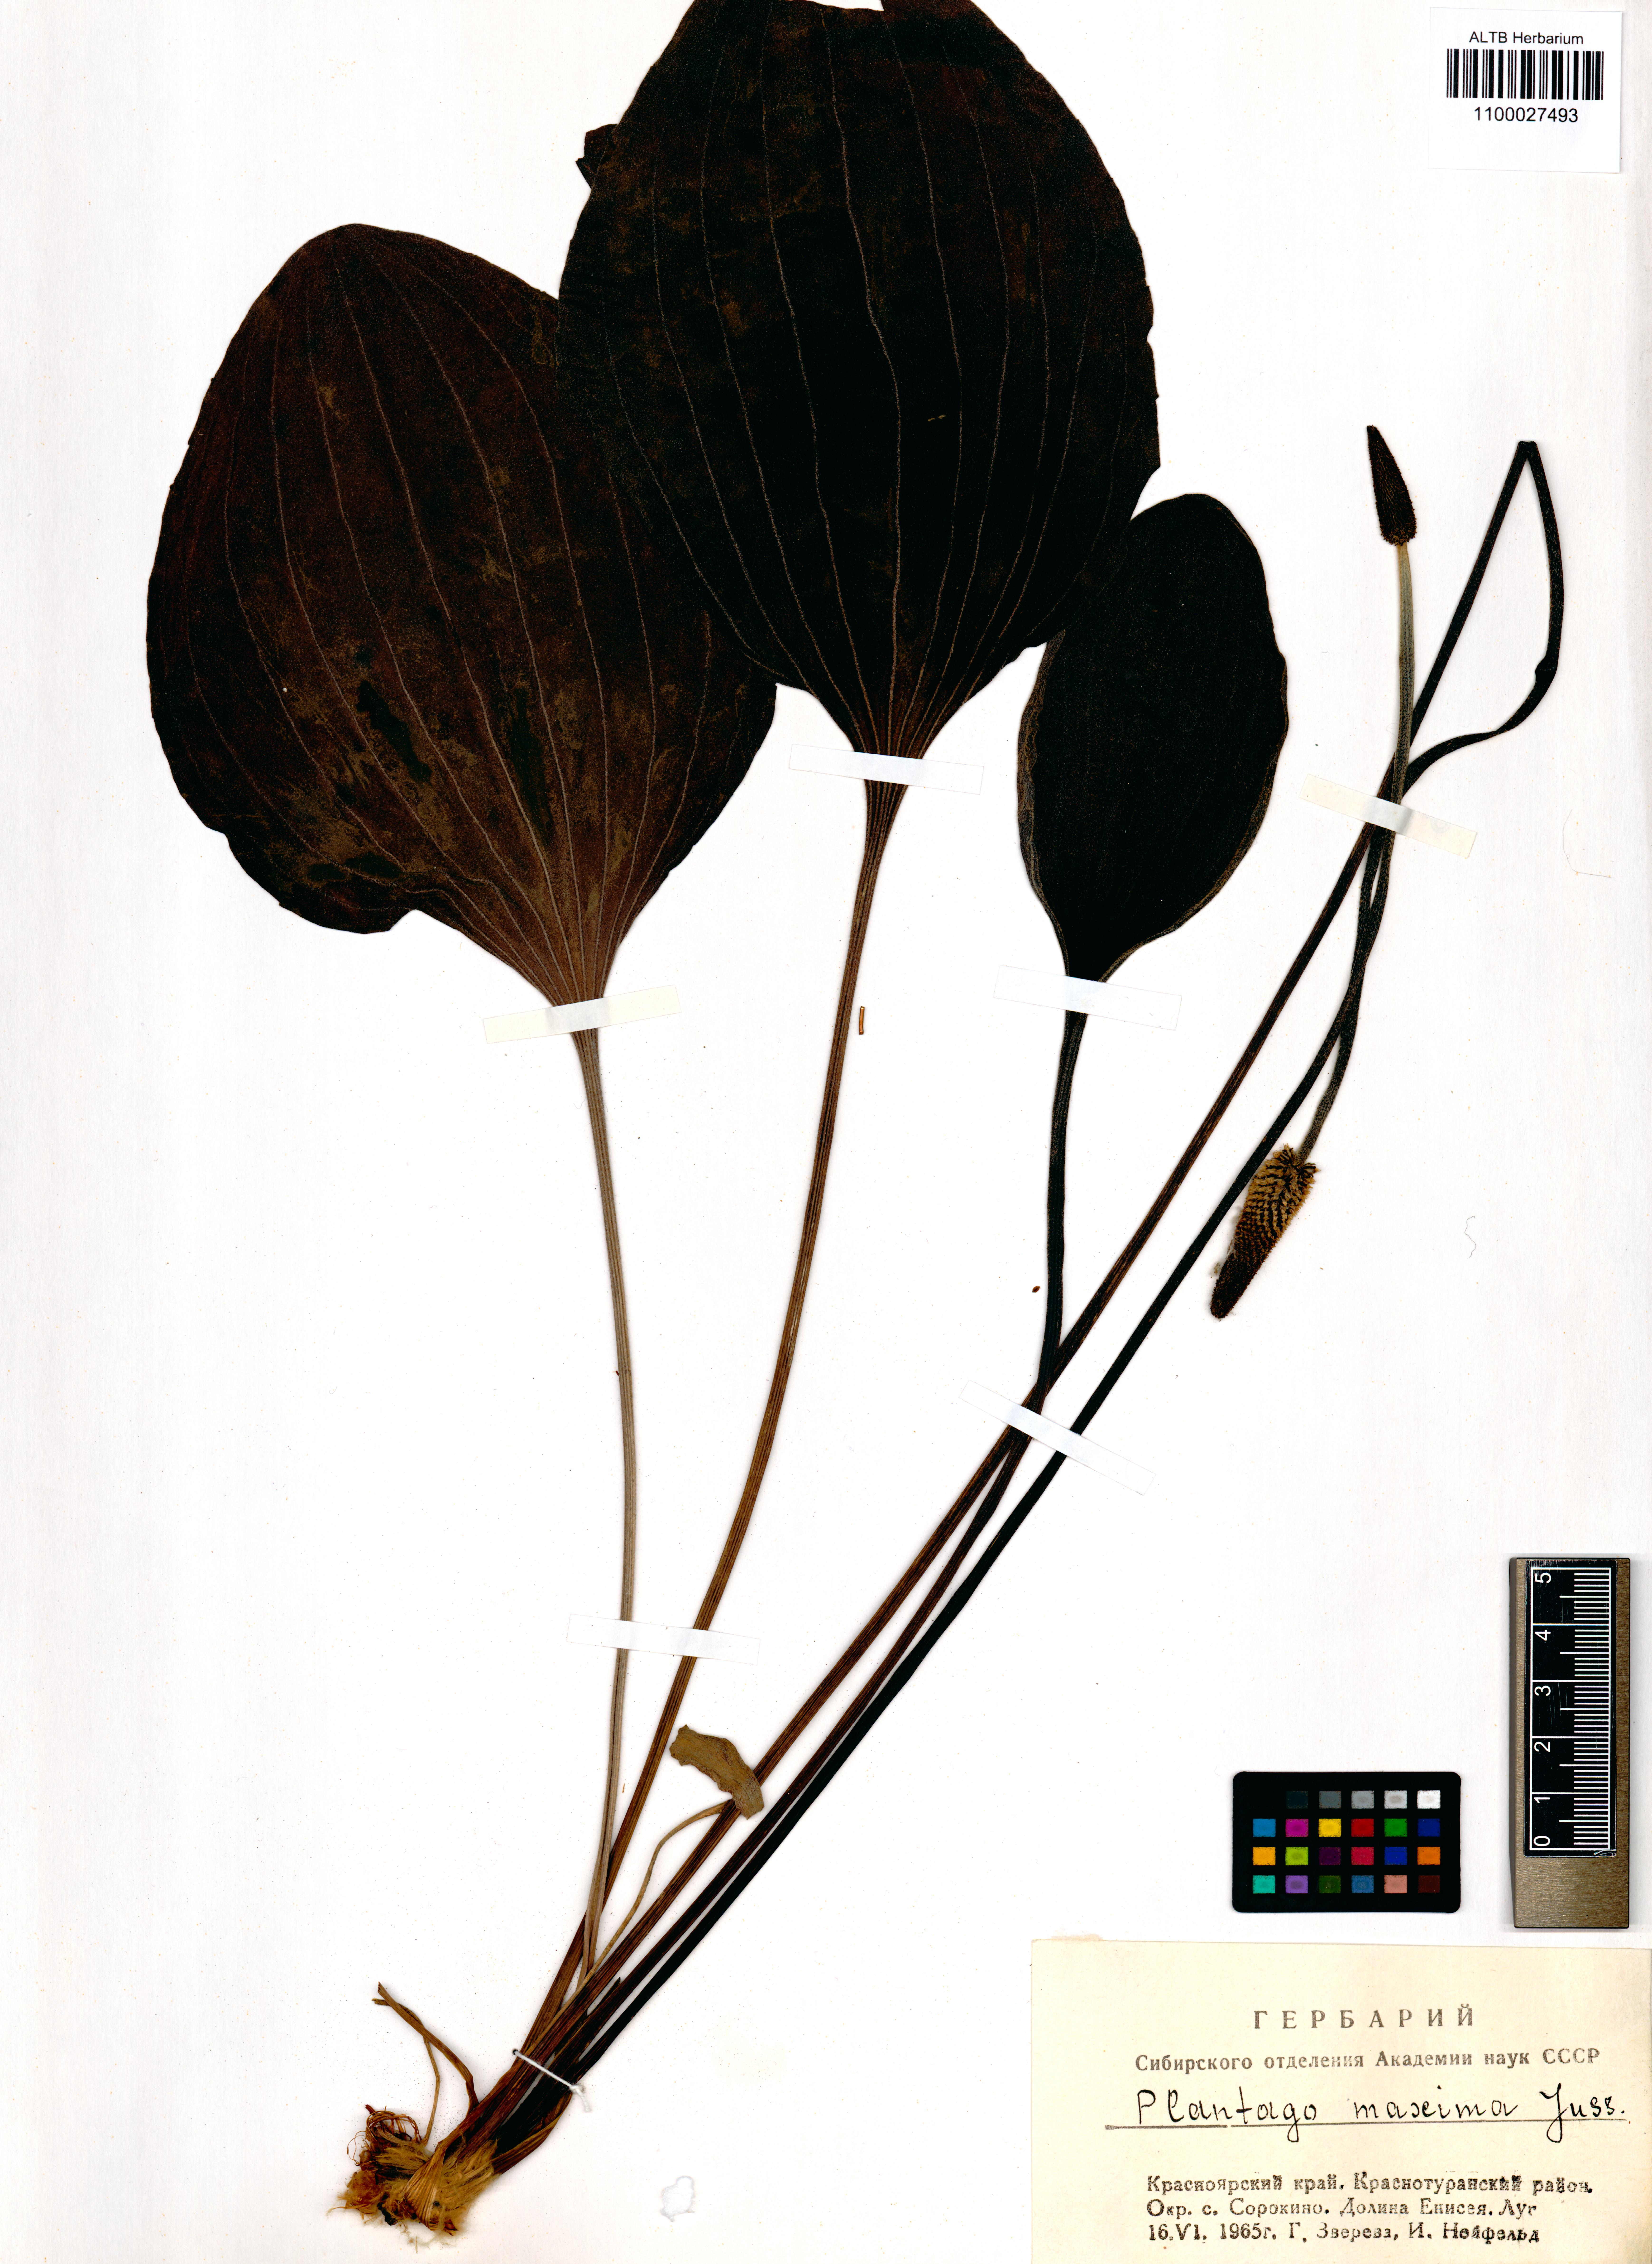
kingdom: Plantae
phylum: Tracheophyta
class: Magnoliopsida
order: Lamiales
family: Plantaginaceae
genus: Plantago
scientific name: Plantago maxima
